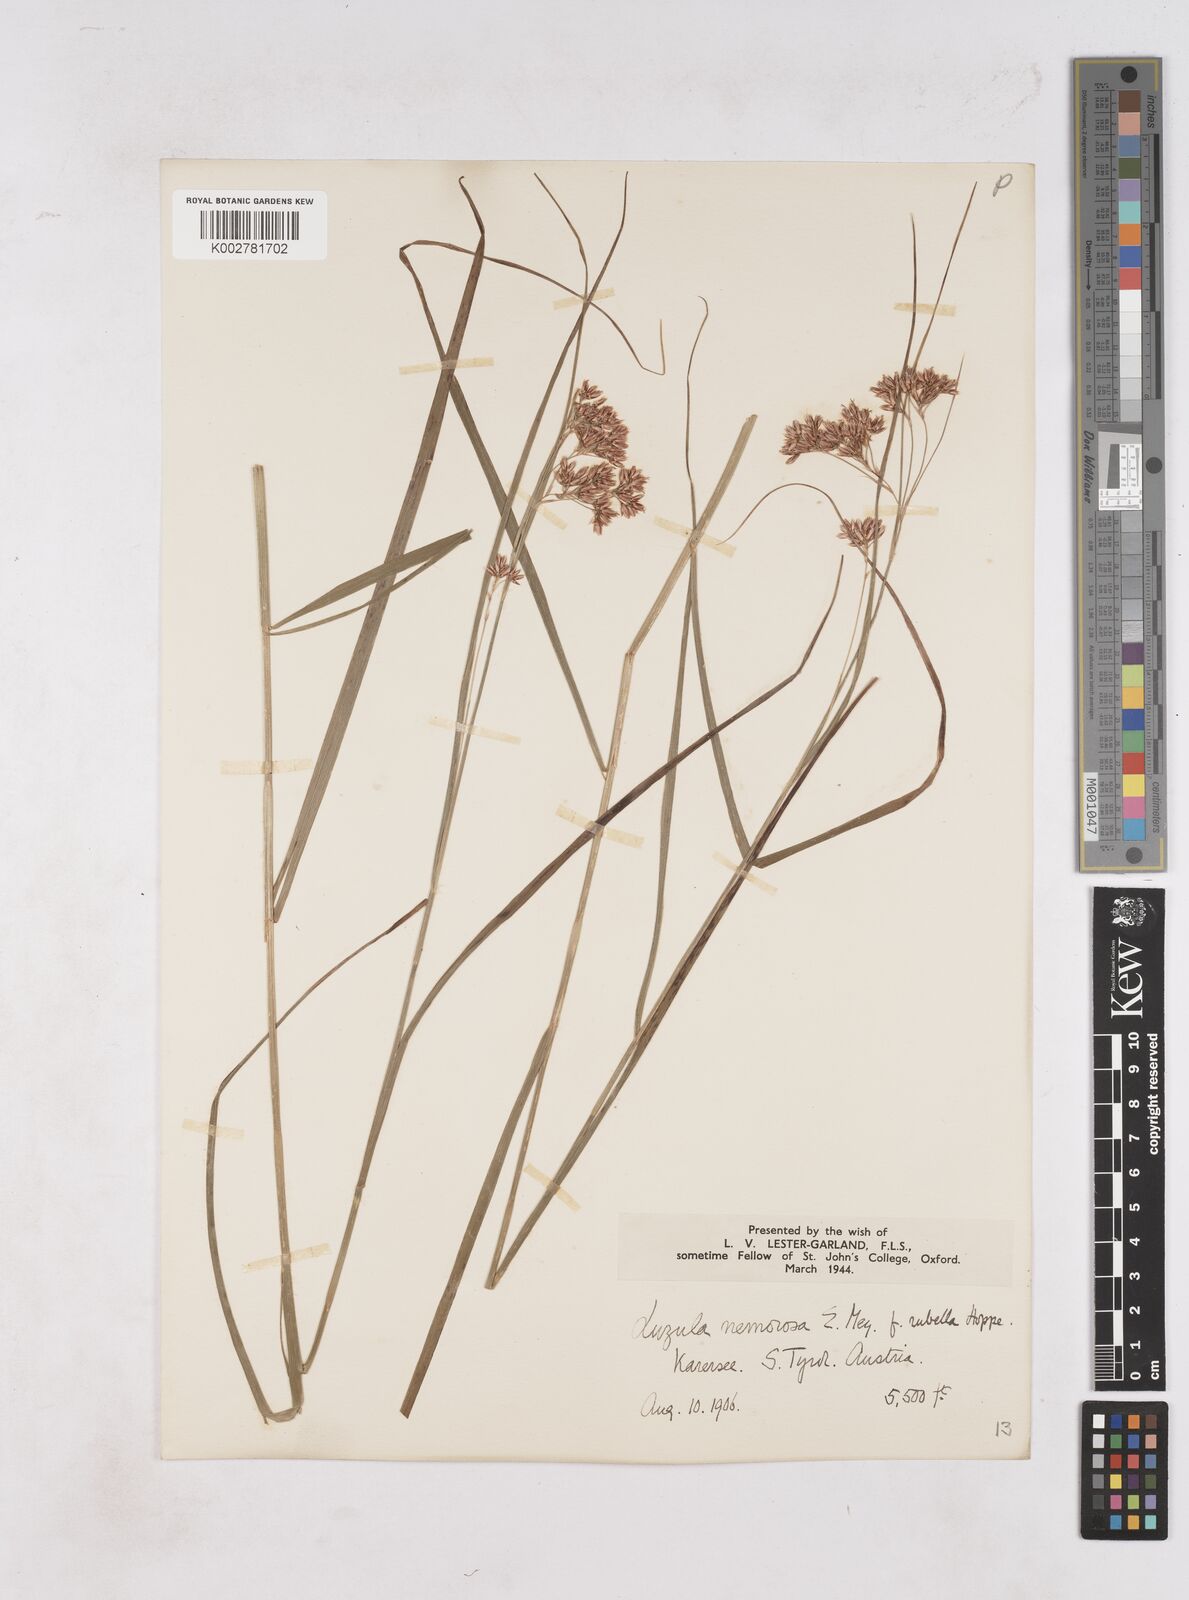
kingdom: Plantae
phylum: Tracheophyta
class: Liliopsida
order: Poales
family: Juncaceae
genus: Luzula
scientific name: Luzula luzuloides
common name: White wood-rush
